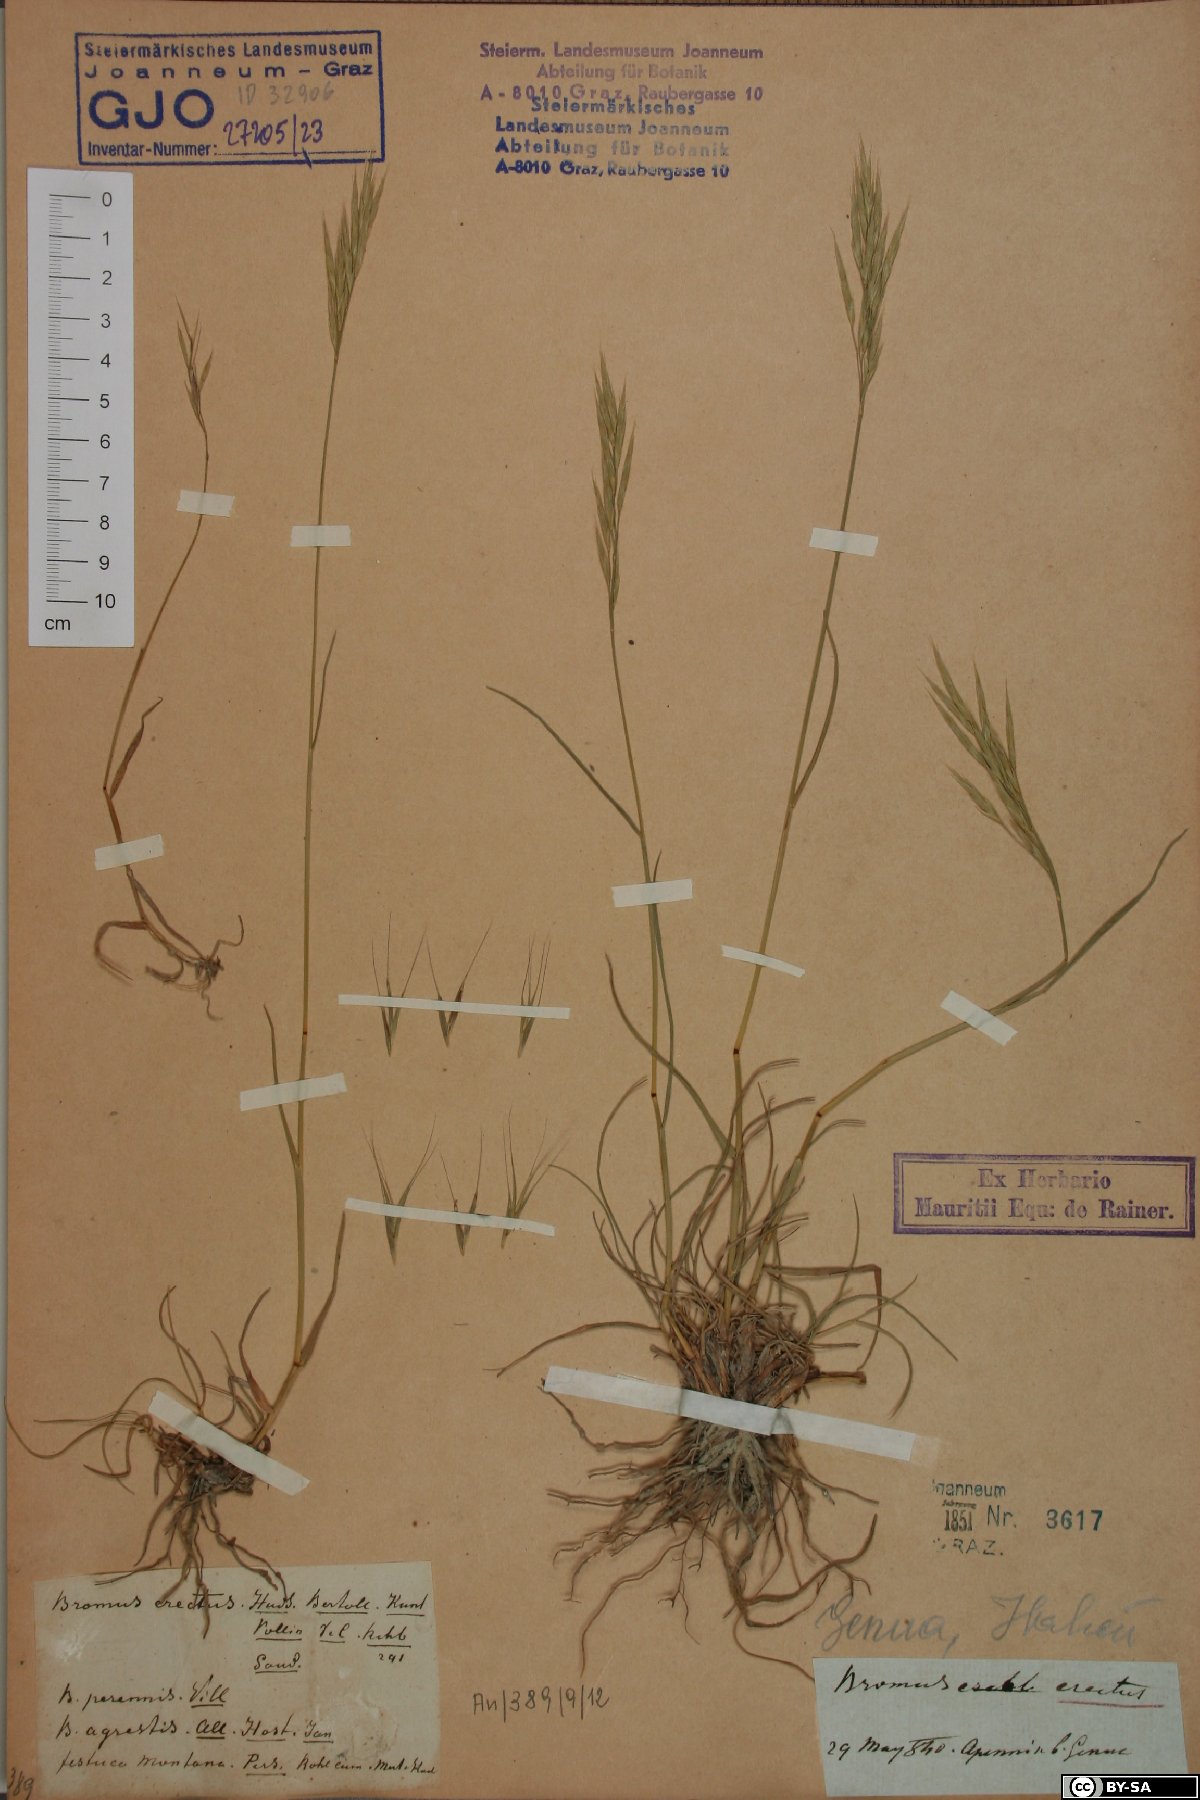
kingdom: Plantae
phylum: Tracheophyta
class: Liliopsida
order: Poales
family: Poaceae
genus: Bromus
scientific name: Bromus erectus
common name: Erect brome
